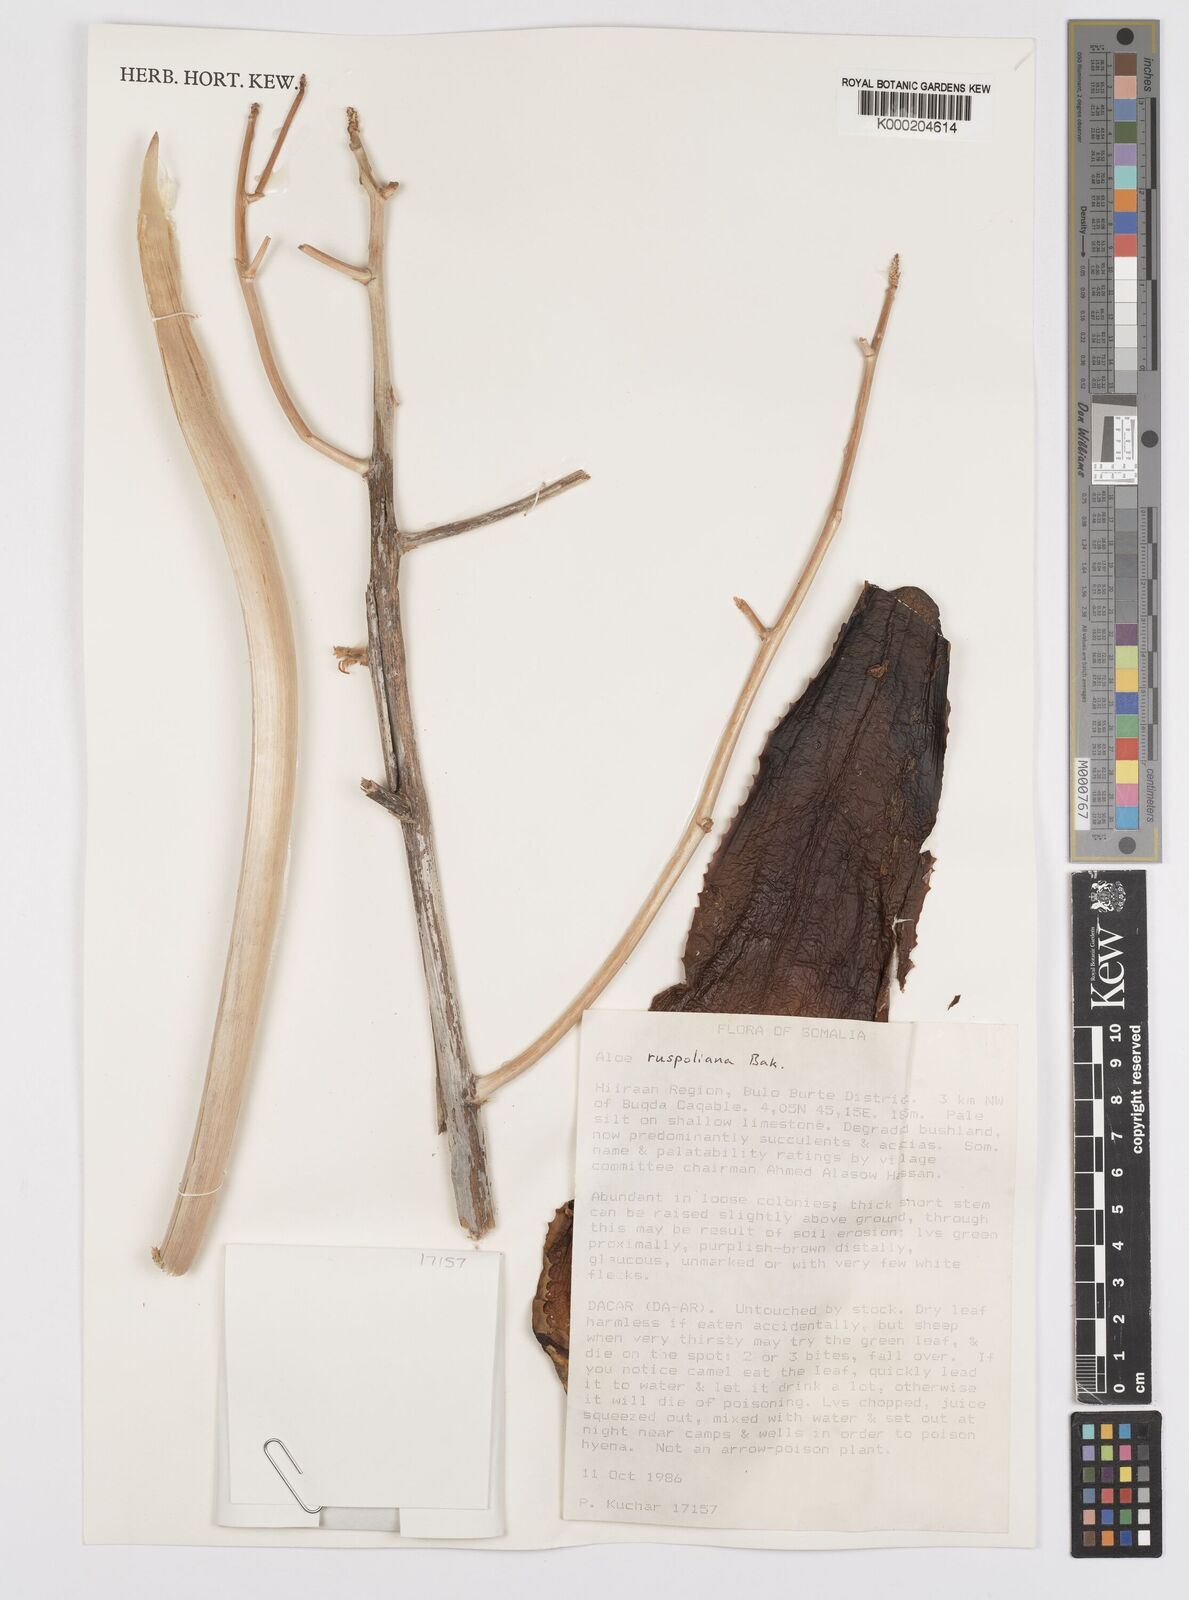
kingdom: Plantae
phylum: Tracheophyta
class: Liliopsida
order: Asparagales
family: Asphodelaceae
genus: Aloe
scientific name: Aloe ruspoliana
